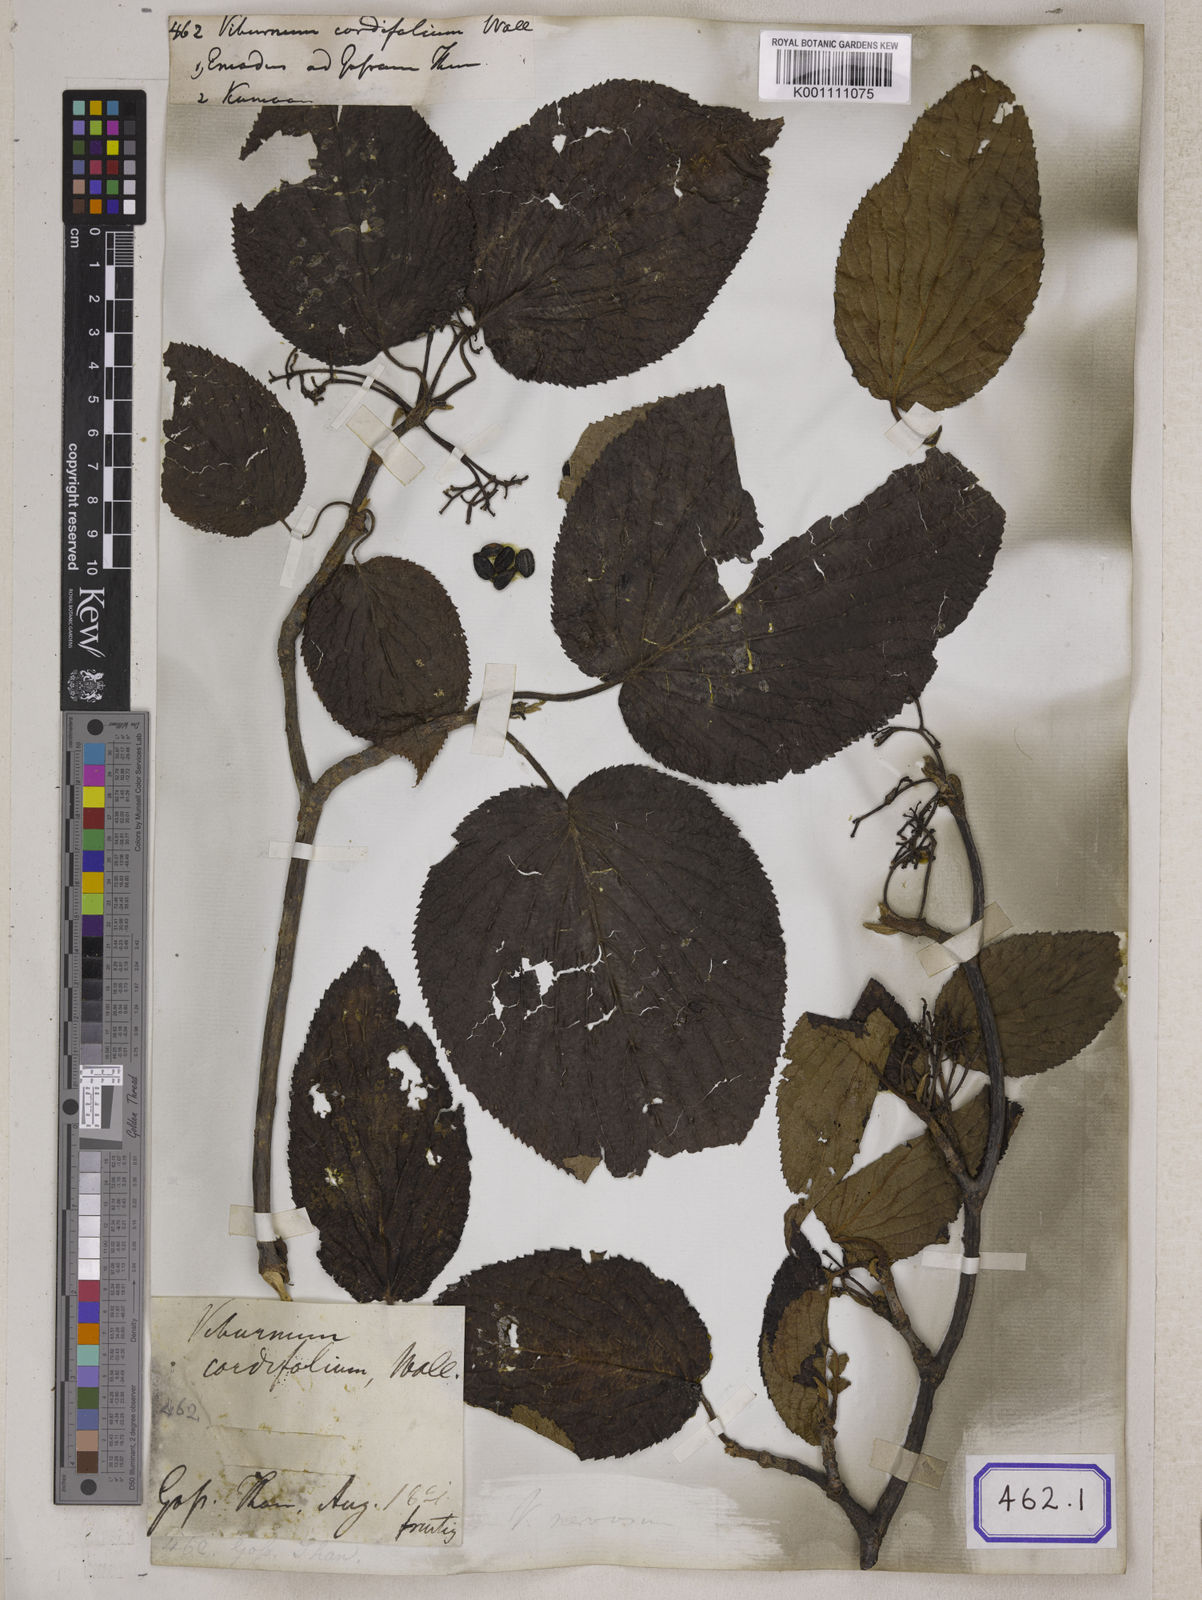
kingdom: Plantae
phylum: Tracheophyta
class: Magnoliopsida
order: Dipsacales
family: Viburnaceae
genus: Viburnum
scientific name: Viburnum
